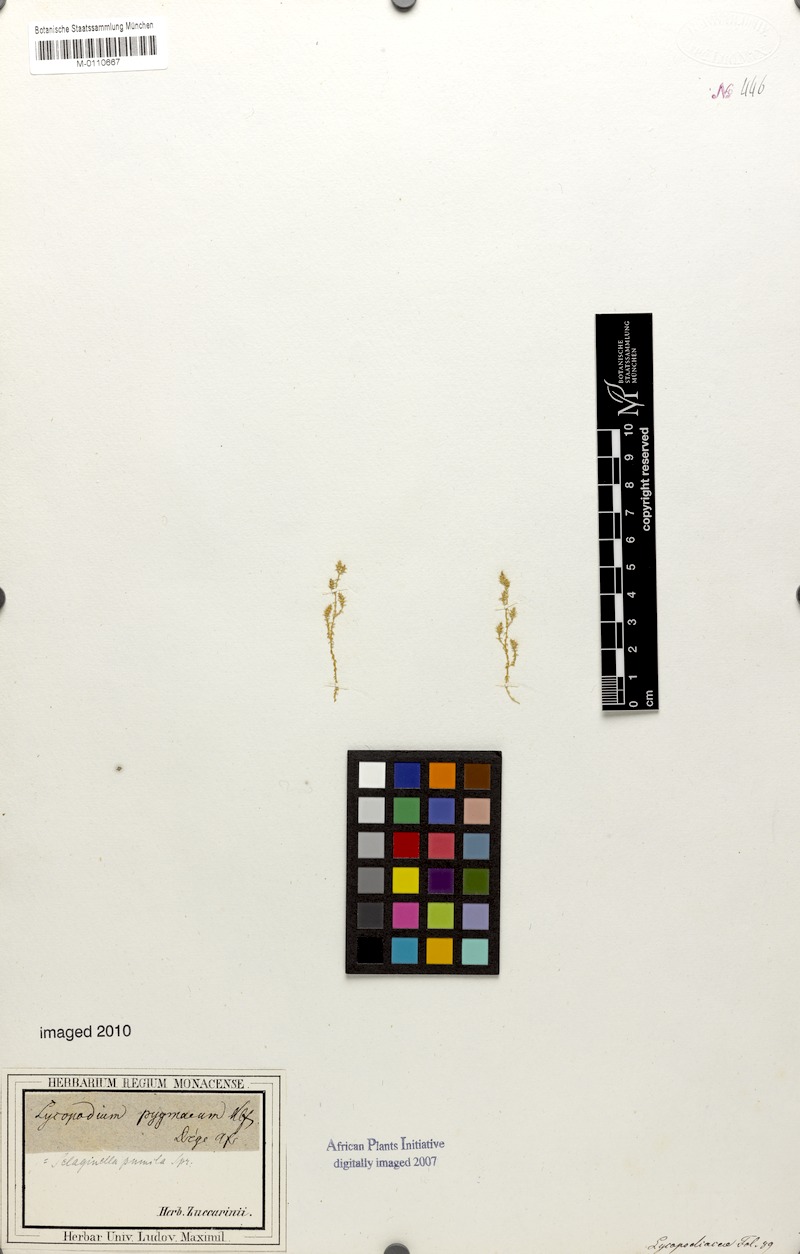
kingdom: Plantae
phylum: Tracheophyta
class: Lycopodiopsida
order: Selaginellales
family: Selaginellaceae
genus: Selaginella
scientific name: Selaginella pygmaea
